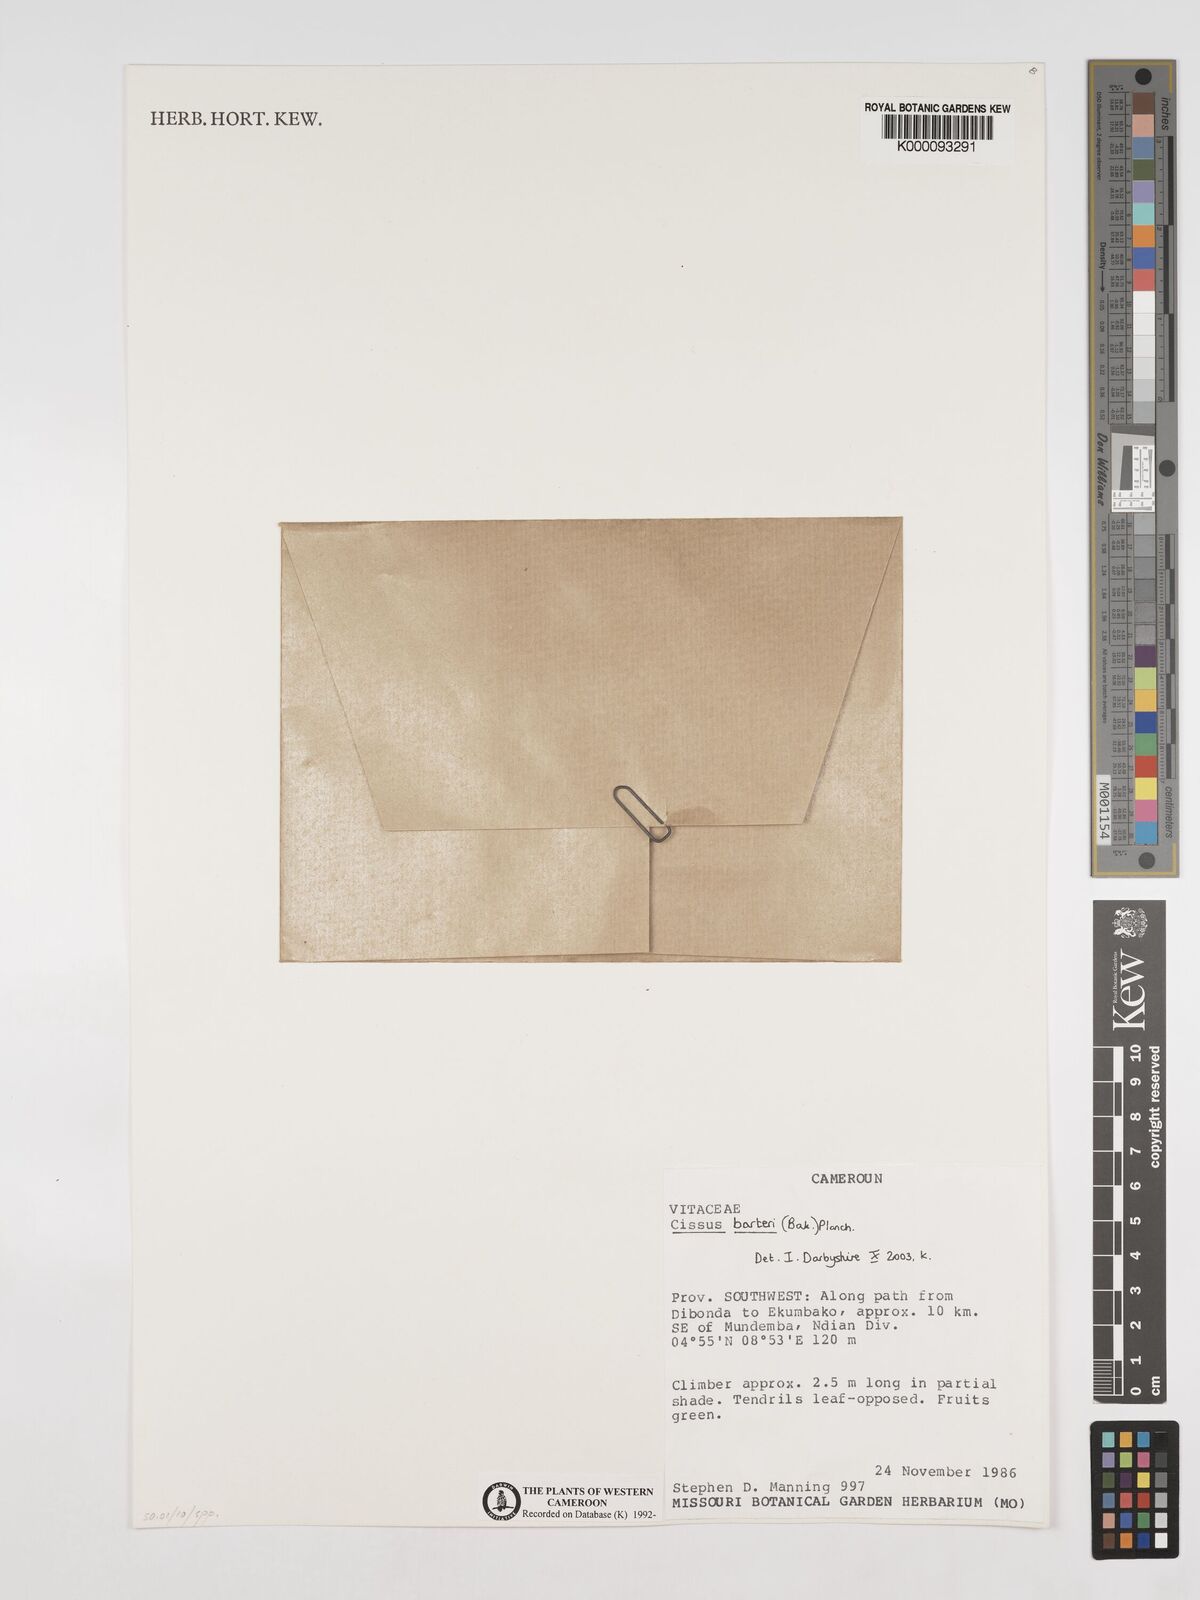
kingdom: Plantae
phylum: Tracheophyta
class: Magnoliopsida
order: Vitales
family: Vitaceae
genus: Cissus
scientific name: Cissus barteri
